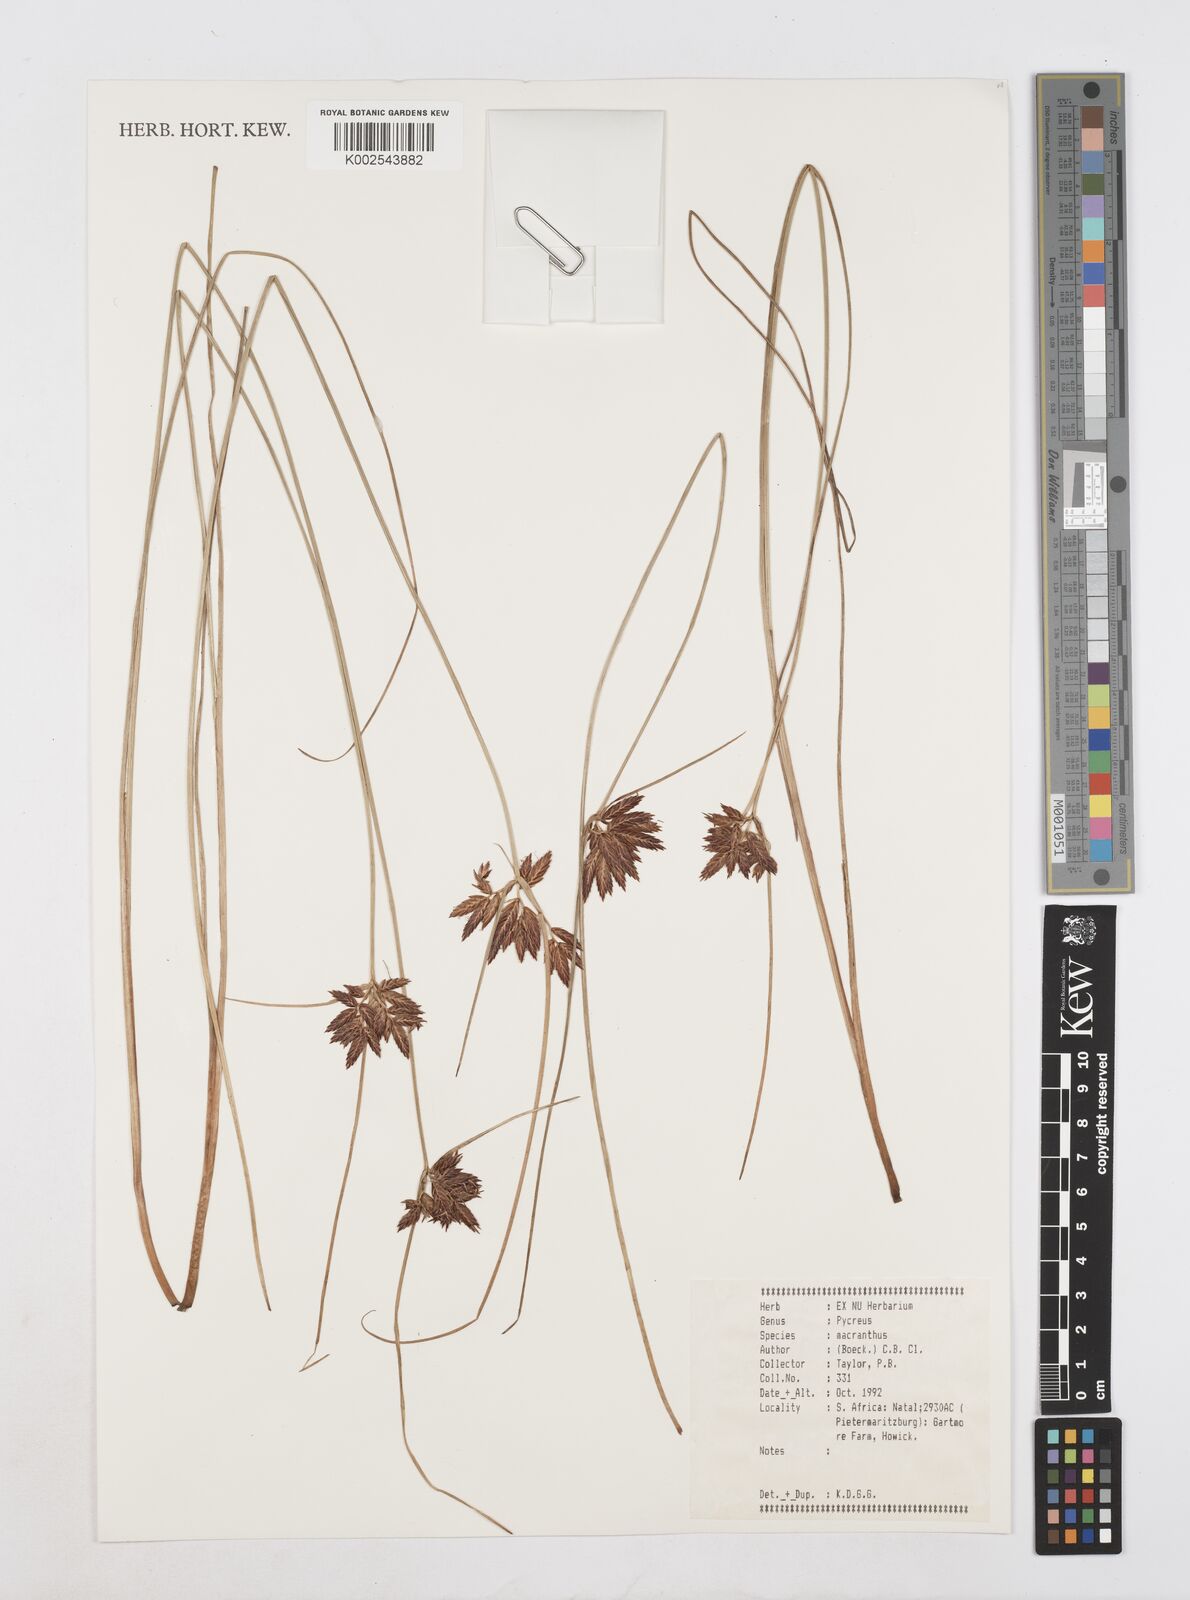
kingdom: Plantae
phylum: Tracheophyta
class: Liliopsida
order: Poales
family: Cyperaceae
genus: Cyperus
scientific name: Cyperus nigricans
